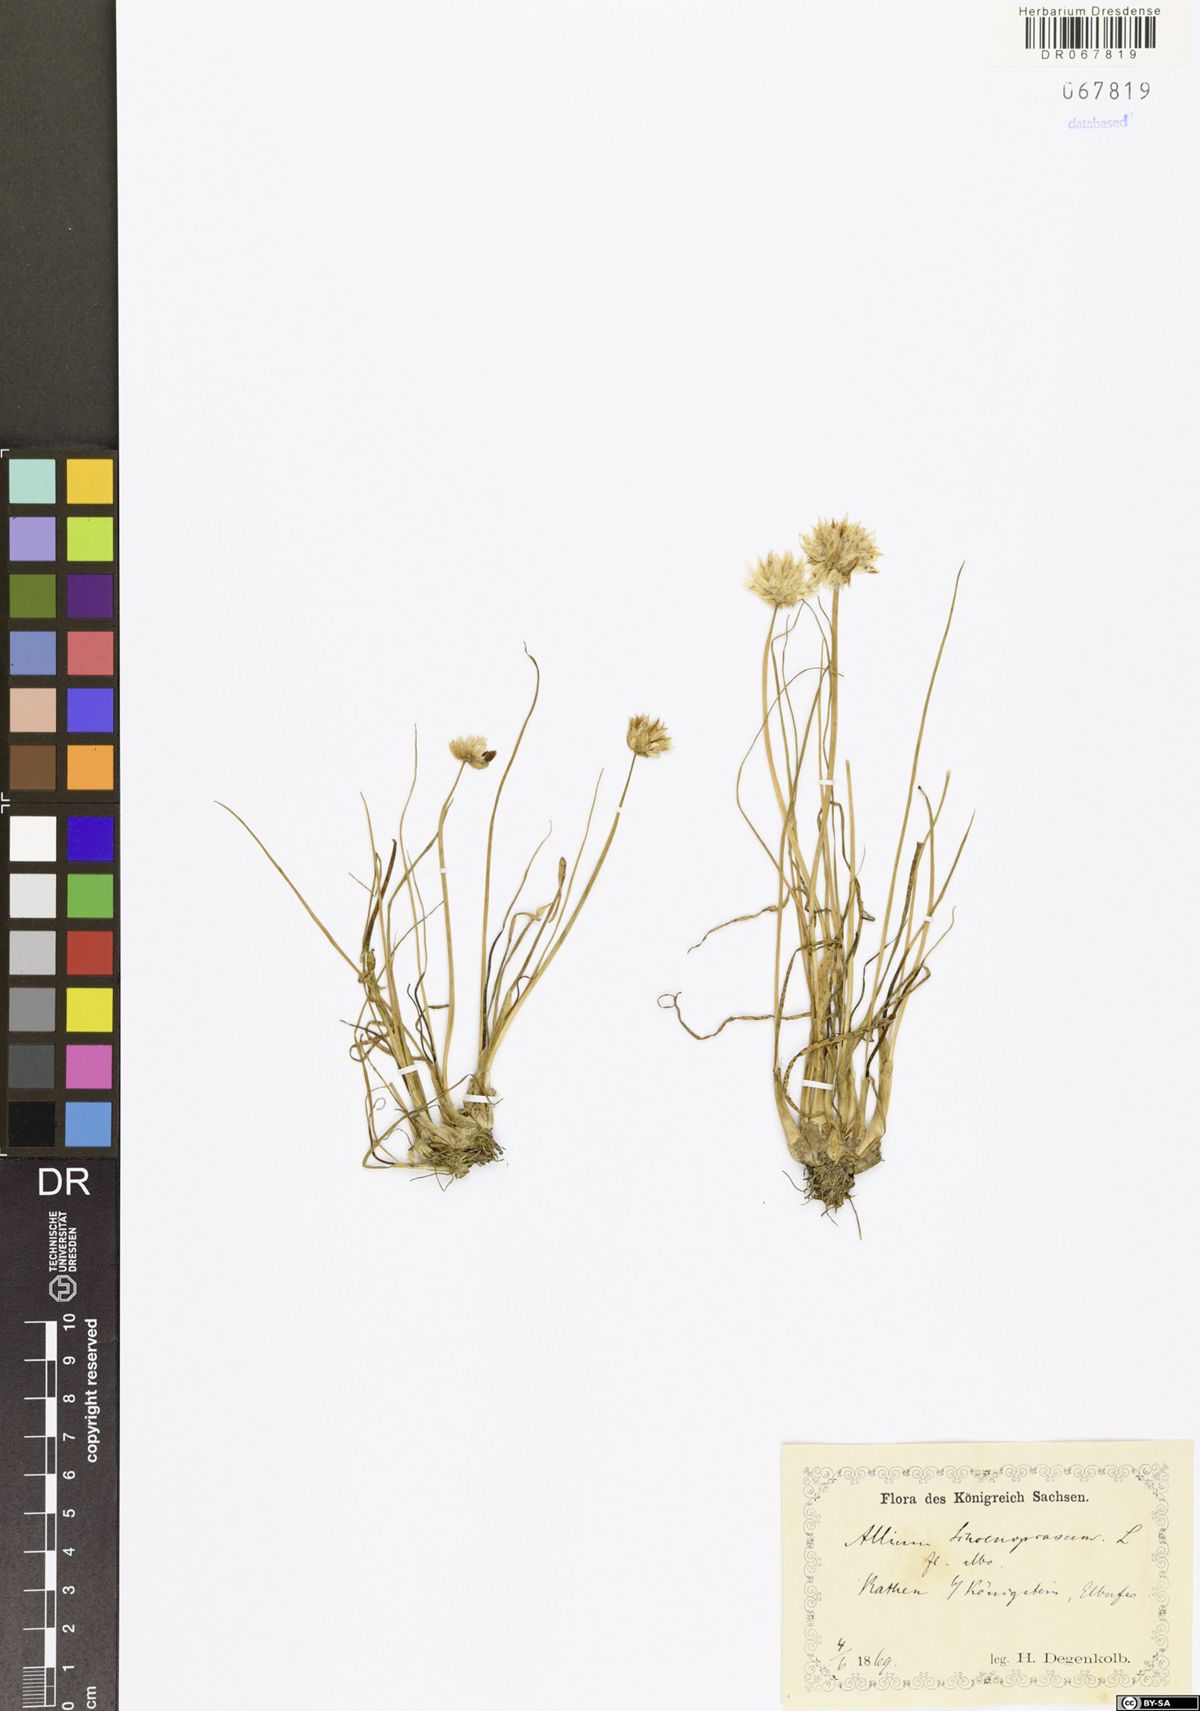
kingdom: Plantae
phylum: Tracheophyta
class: Liliopsida
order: Asparagales
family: Amaryllidaceae
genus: Allium
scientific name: Allium schoenoprasum
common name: Chives
